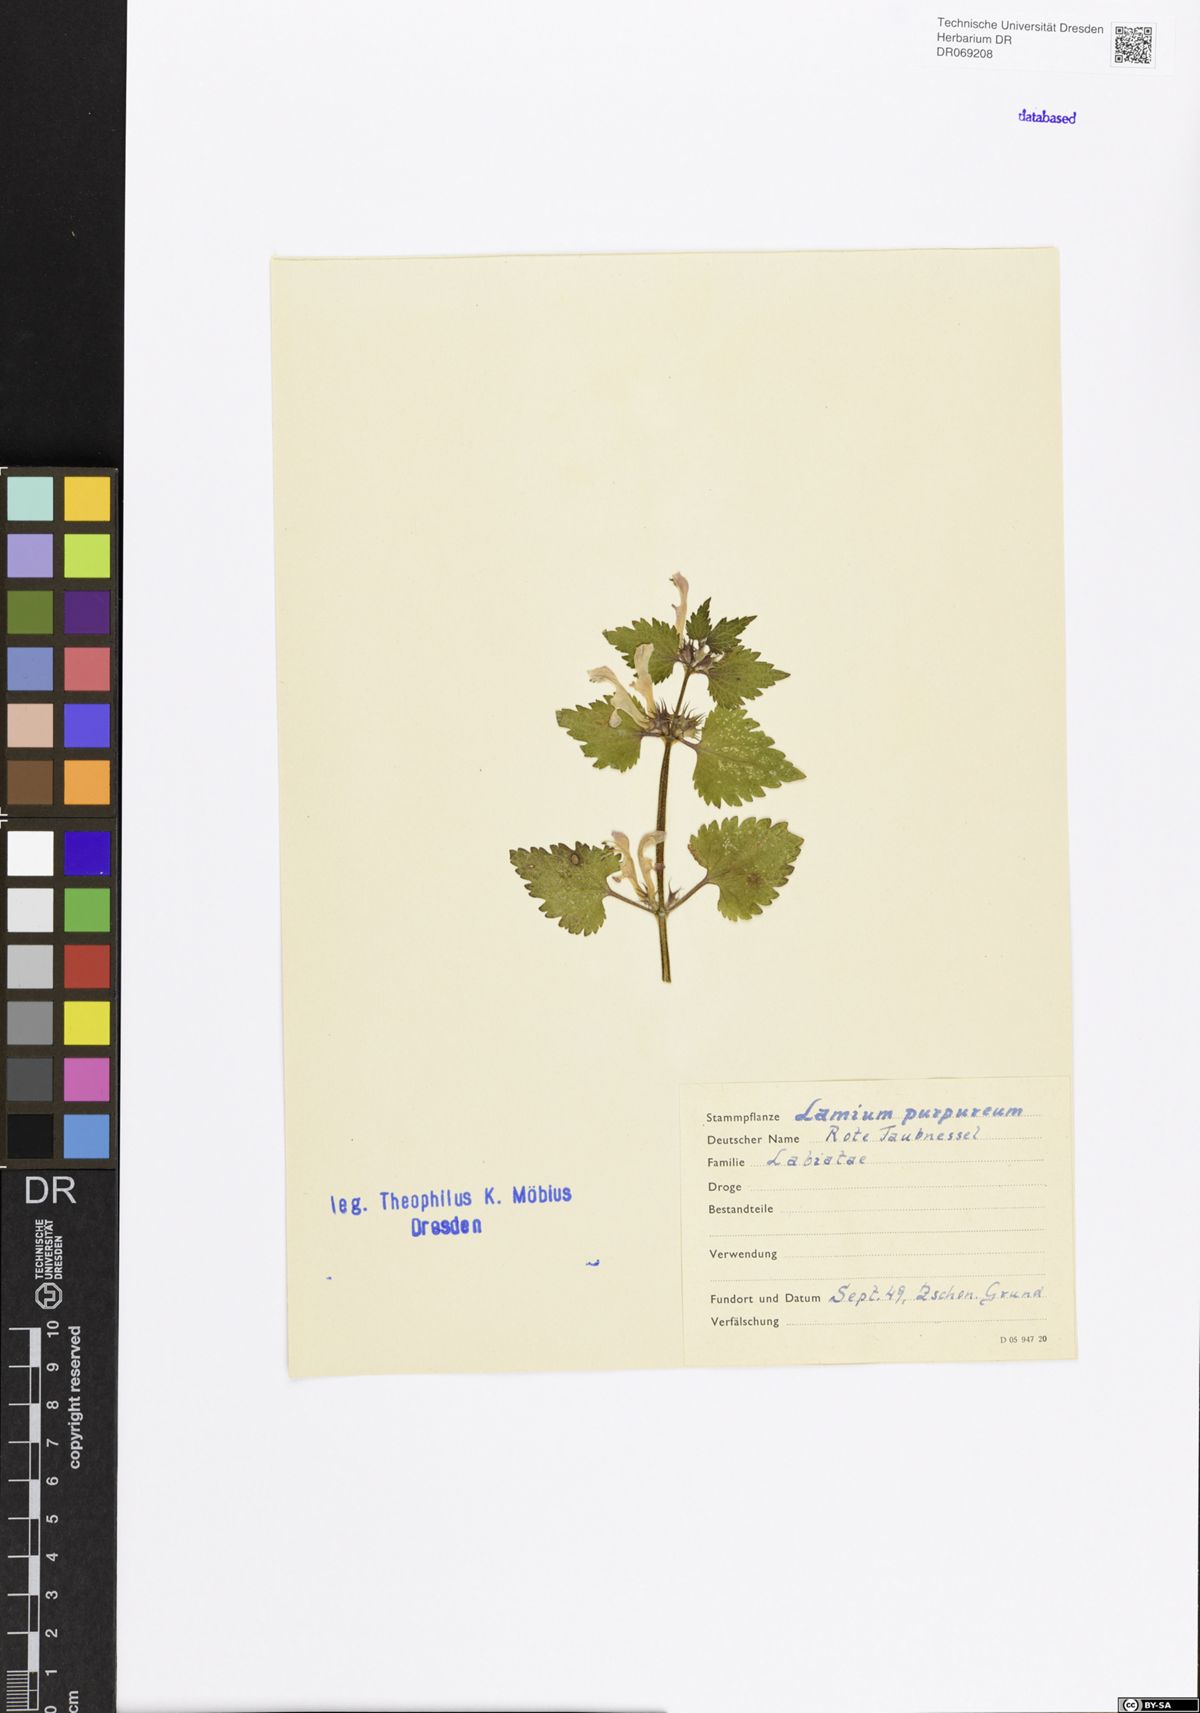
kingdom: Plantae
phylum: Tracheophyta
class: Magnoliopsida
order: Lamiales
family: Lamiaceae
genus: Lamium
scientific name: Lamium purpureum
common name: Red dead-nettle
